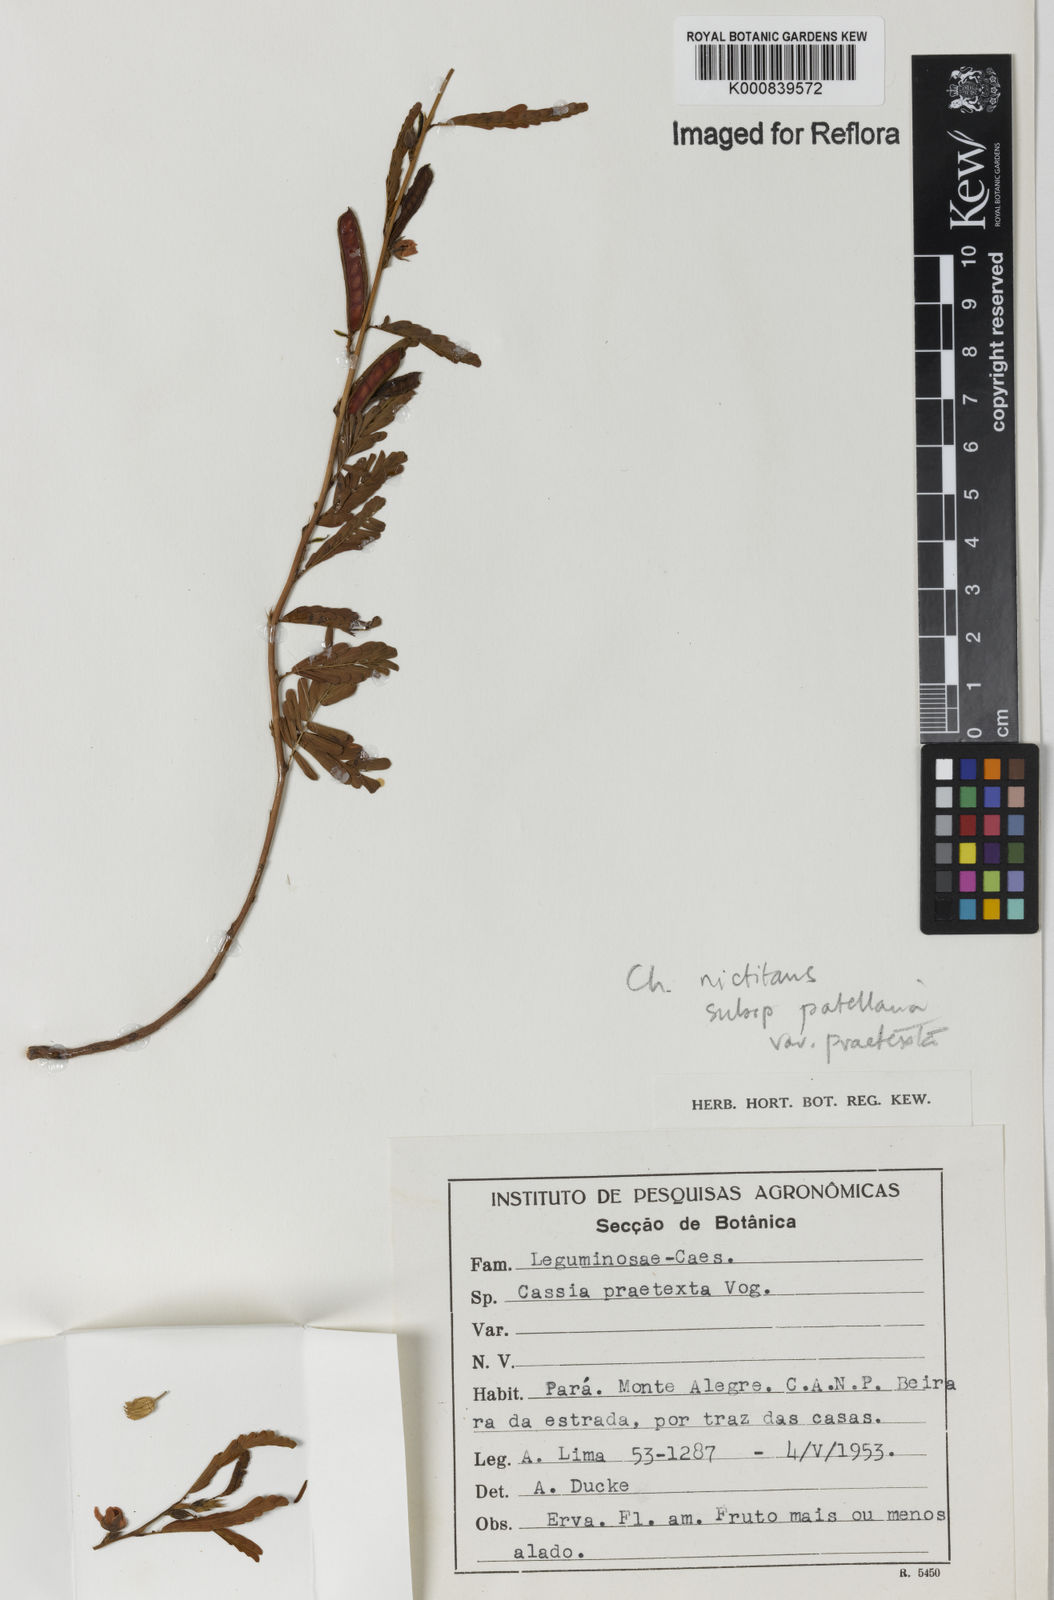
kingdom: Plantae
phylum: Tracheophyta
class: Magnoliopsida
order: Fabales
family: Fabaceae
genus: Chamaecrista
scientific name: Chamaecrista nictitans
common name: Sensitive cassia
